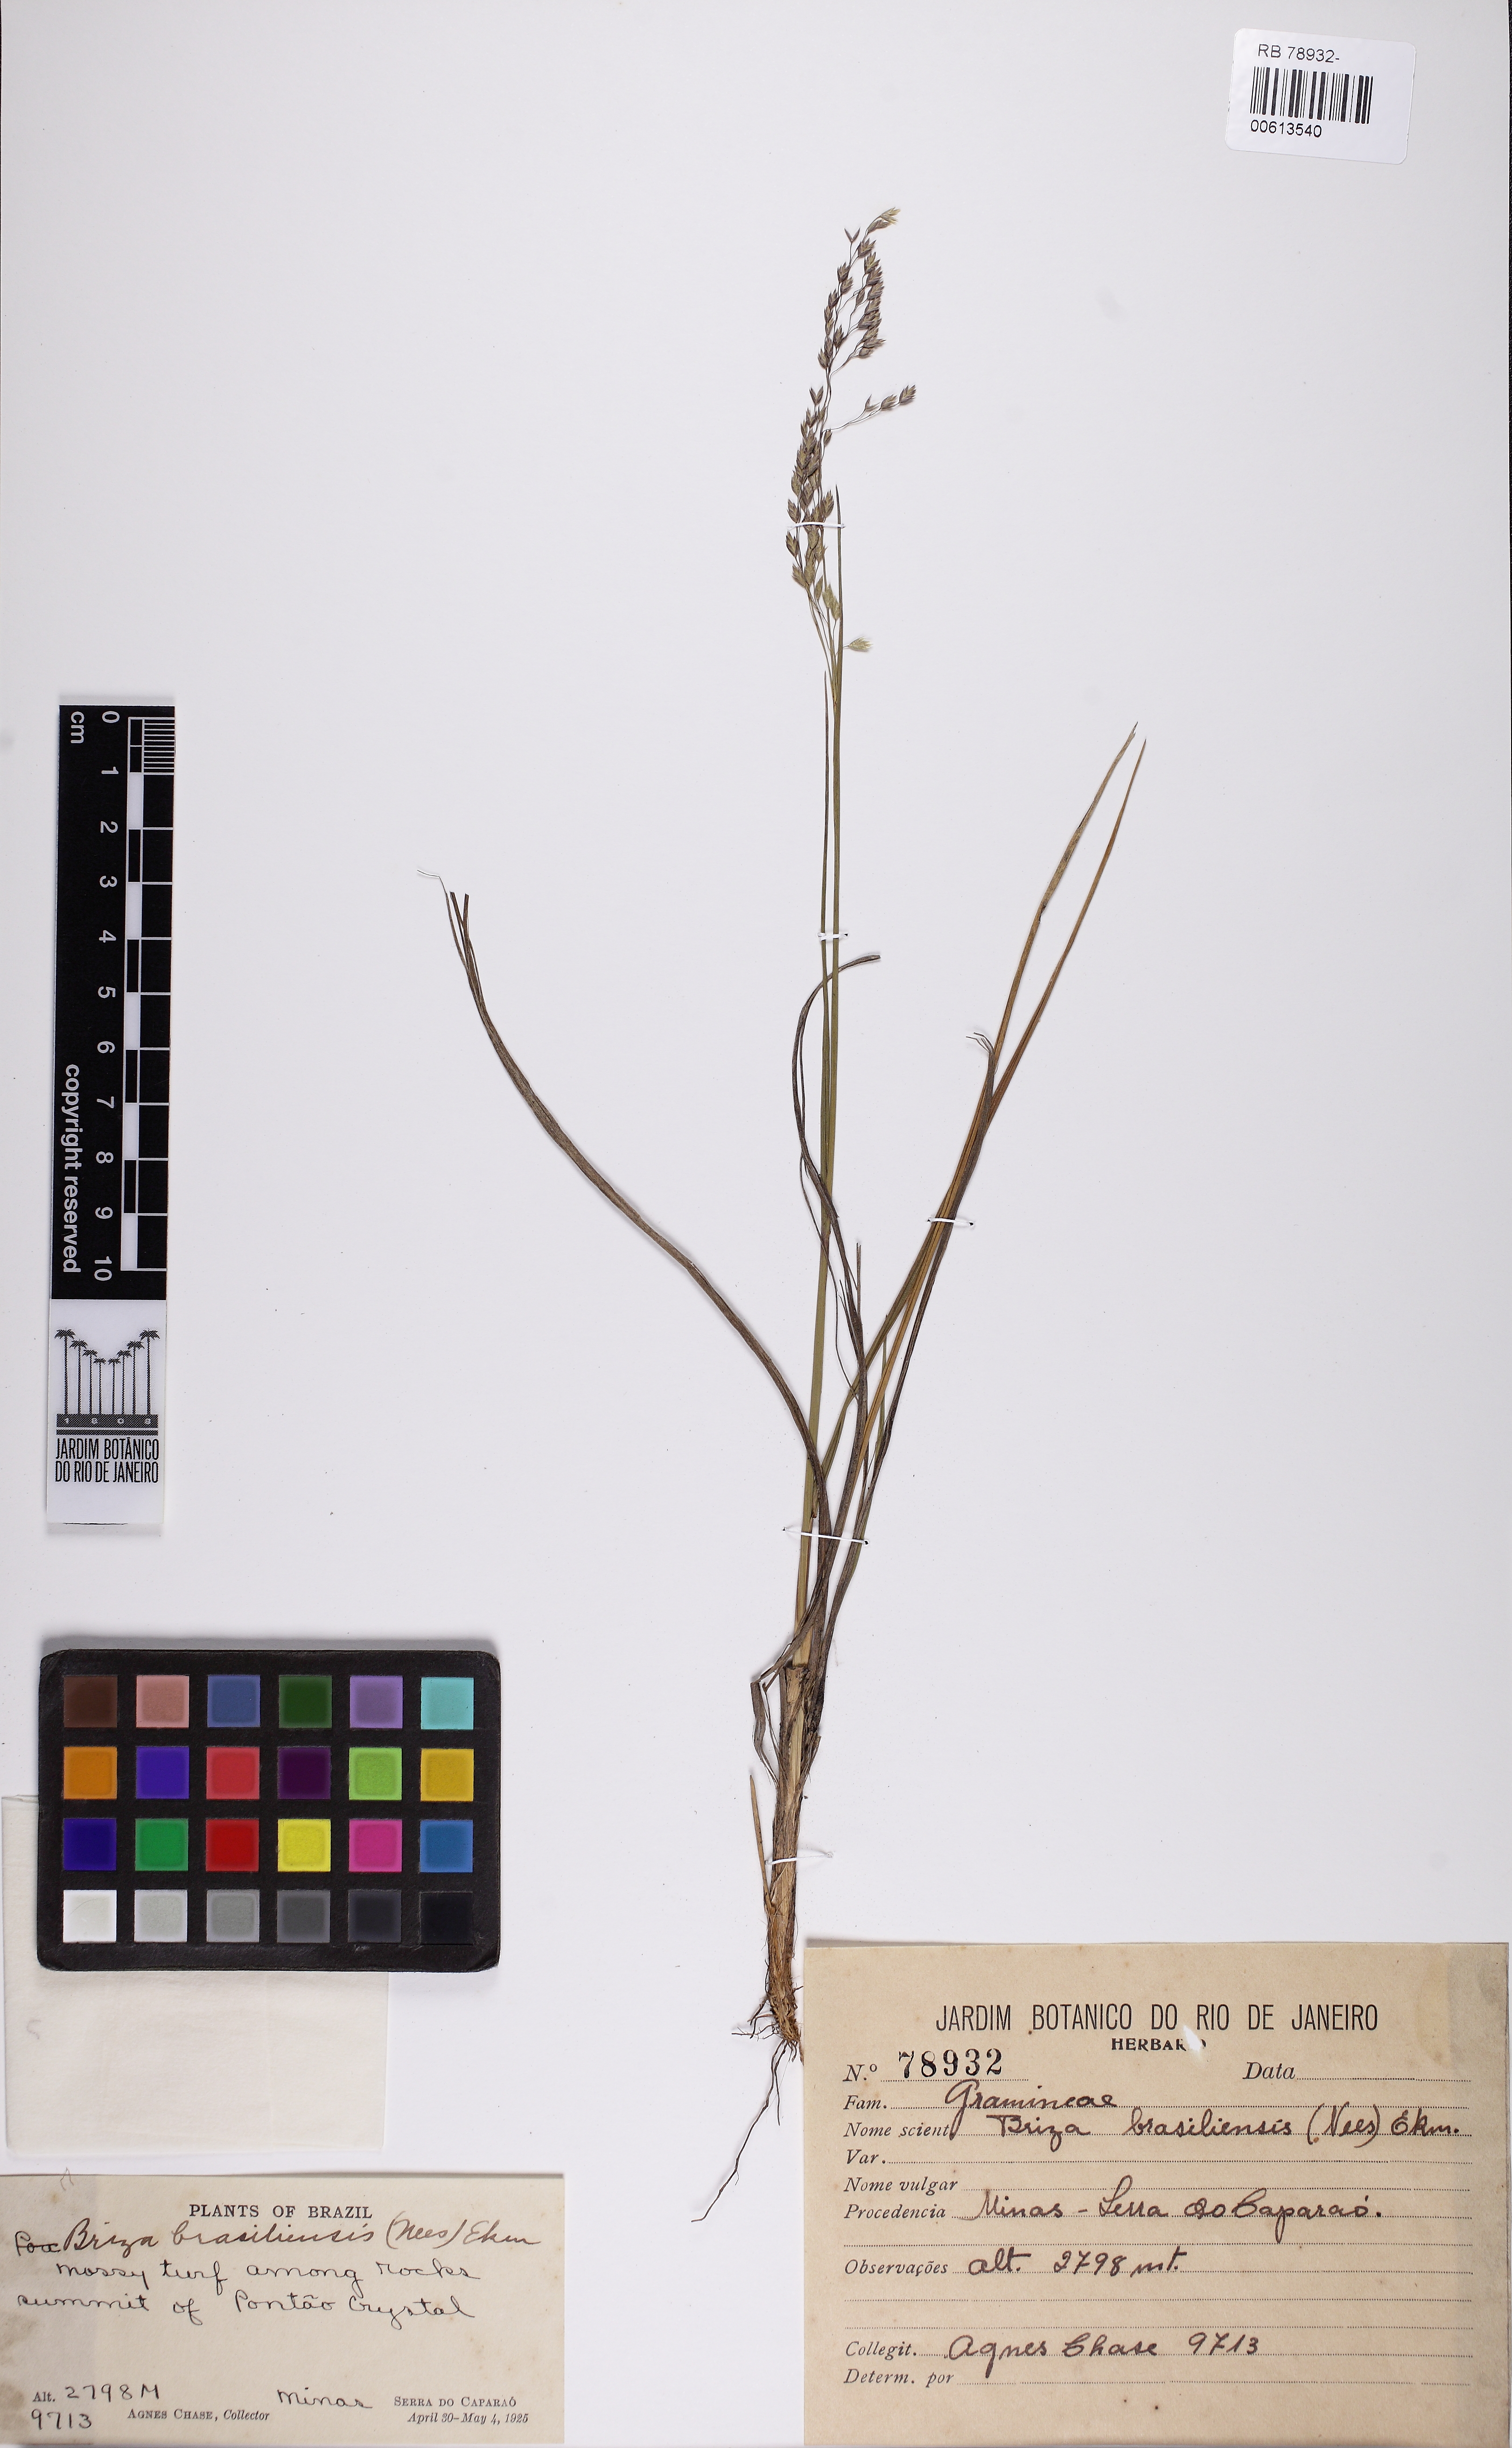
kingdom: Plantae
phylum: Tracheophyta
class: Liliopsida
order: Poales
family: Poaceae
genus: Poidium
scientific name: Poidium brasiliense
